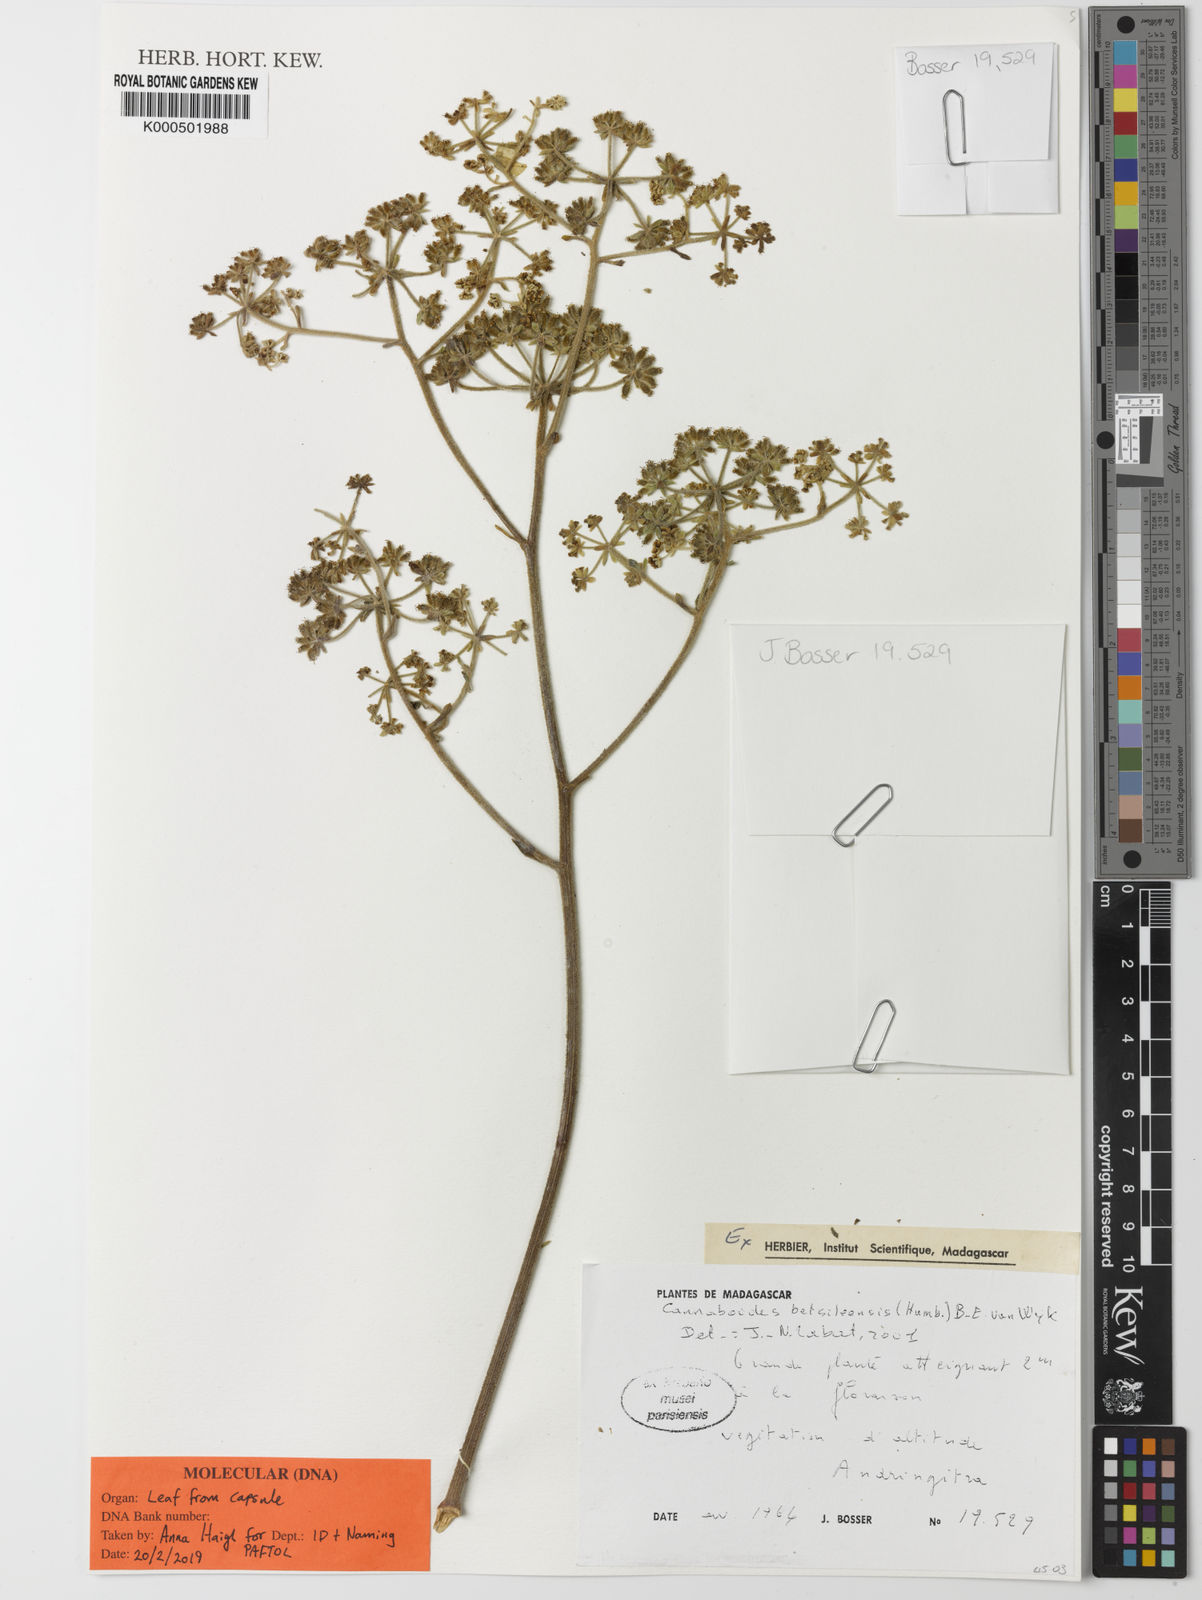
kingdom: Plantae
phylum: Tracheophyta
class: Magnoliopsida
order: Apiales
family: Apiaceae
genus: Cannaboides
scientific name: Cannaboides betsileensis
